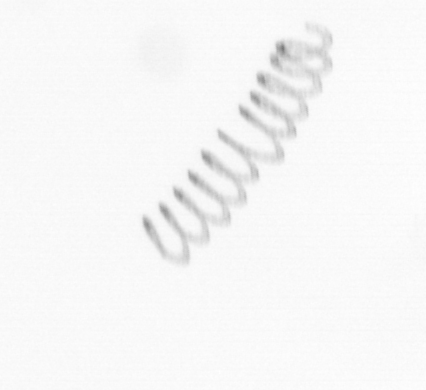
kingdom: Chromista
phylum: Ochrophyta
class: Bacillariophyceae
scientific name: Bacillariophyceae
